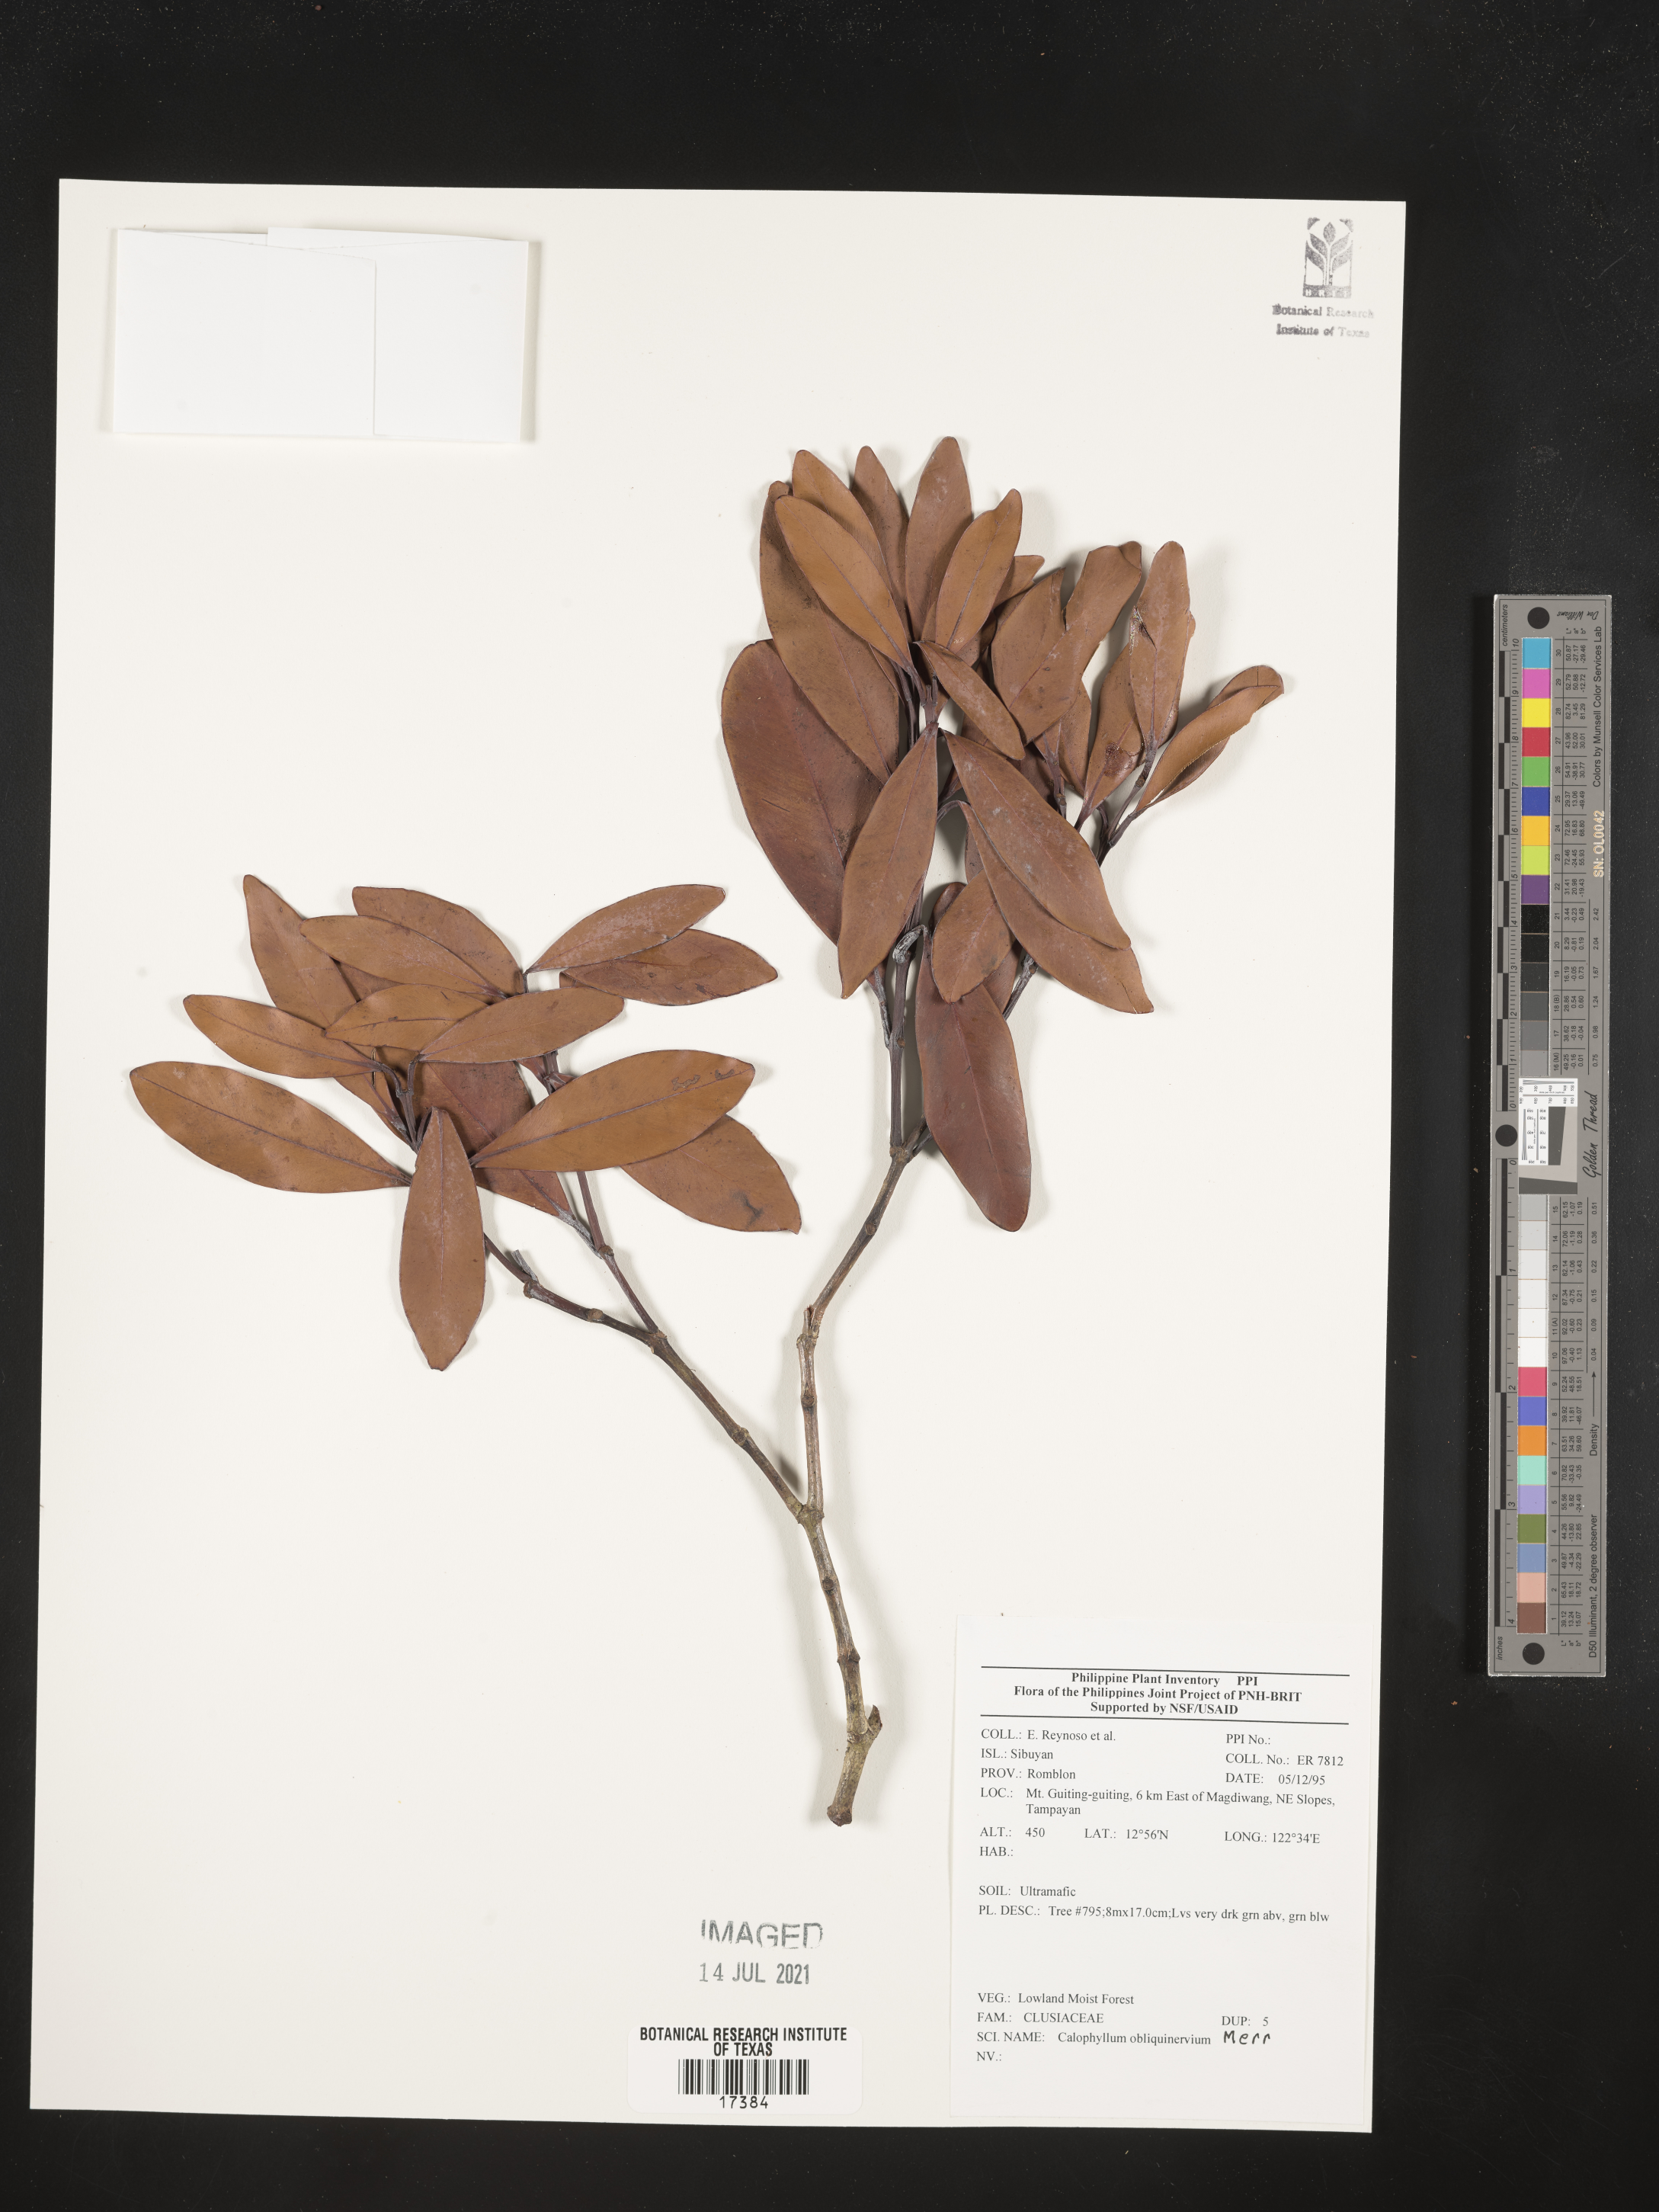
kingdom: Plantae
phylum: Tracheophyta
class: Magnoliopsida
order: Malpighiales
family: Calophyllaceae
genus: Calophyllum
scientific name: Calophyllum obliquinervium
